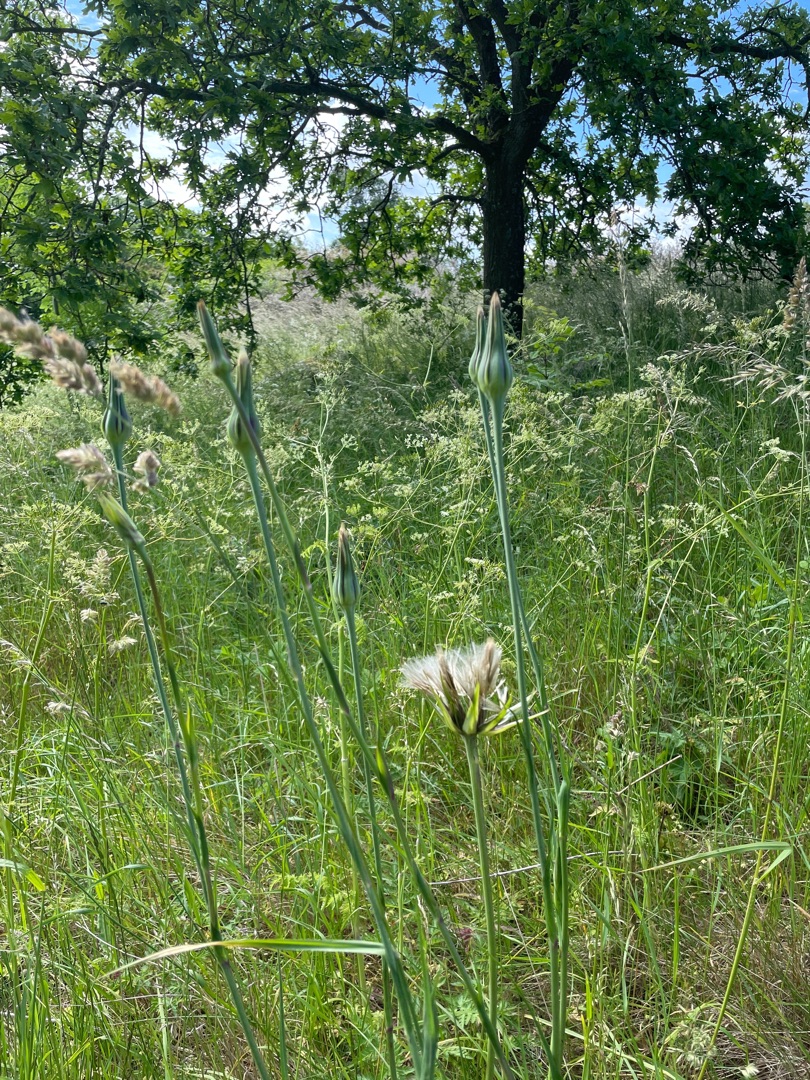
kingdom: Plantae
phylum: Tracheophyta
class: Magnoliopsida
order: Asterales
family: Asteraceae
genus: Tragopogon
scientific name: Tragopogon pratensis
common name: Gedeskæg
